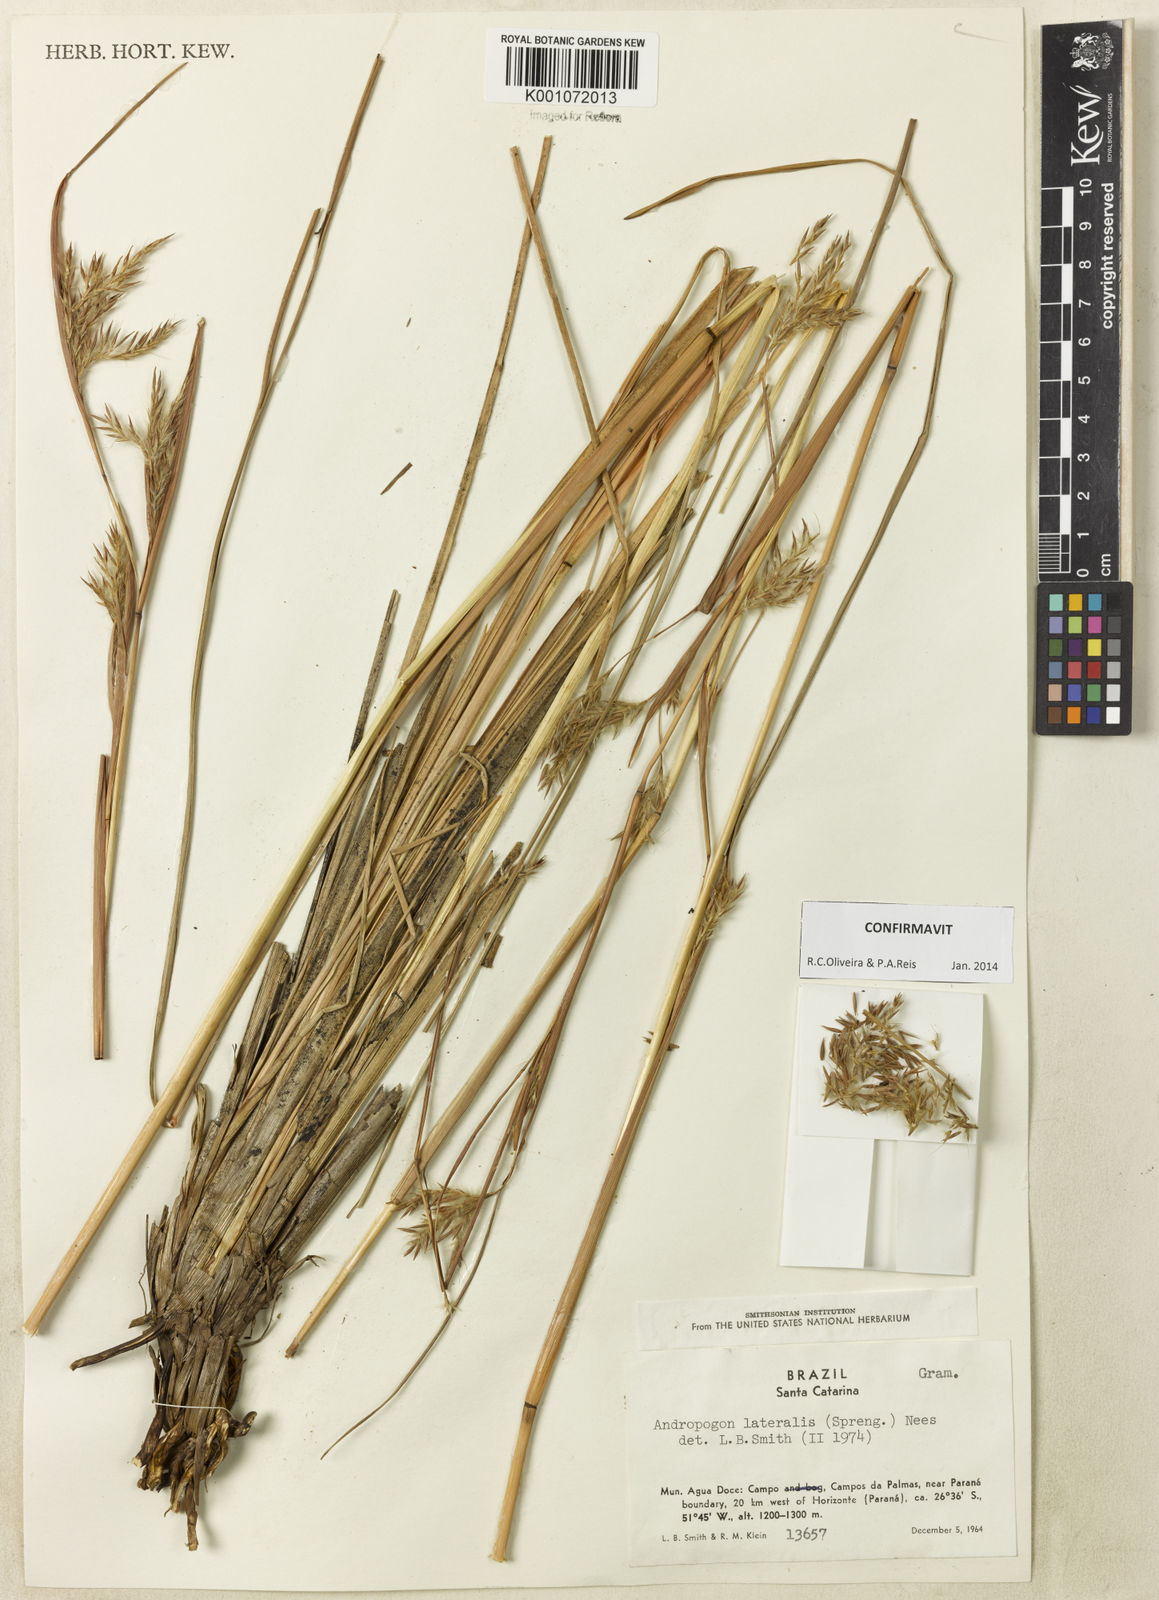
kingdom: Plantae
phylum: Tracheophyta
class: Liliopsida
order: Poales
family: Poaceae
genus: Andropogon
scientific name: Andropogon lateralis
